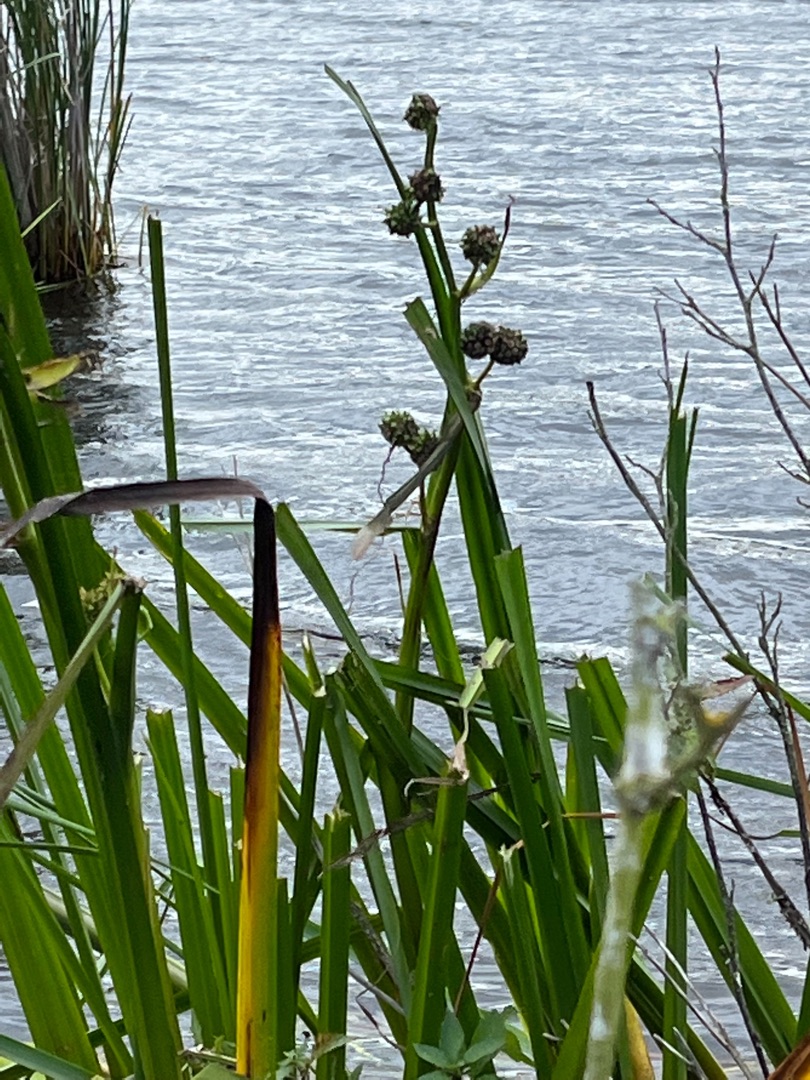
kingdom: Plantae
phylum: Tracheophyta
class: Liliopsida
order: Poales
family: Typhaceae
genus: Sparganium
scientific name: Sparganium erectum
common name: Sodfarvet pindsvineknop
